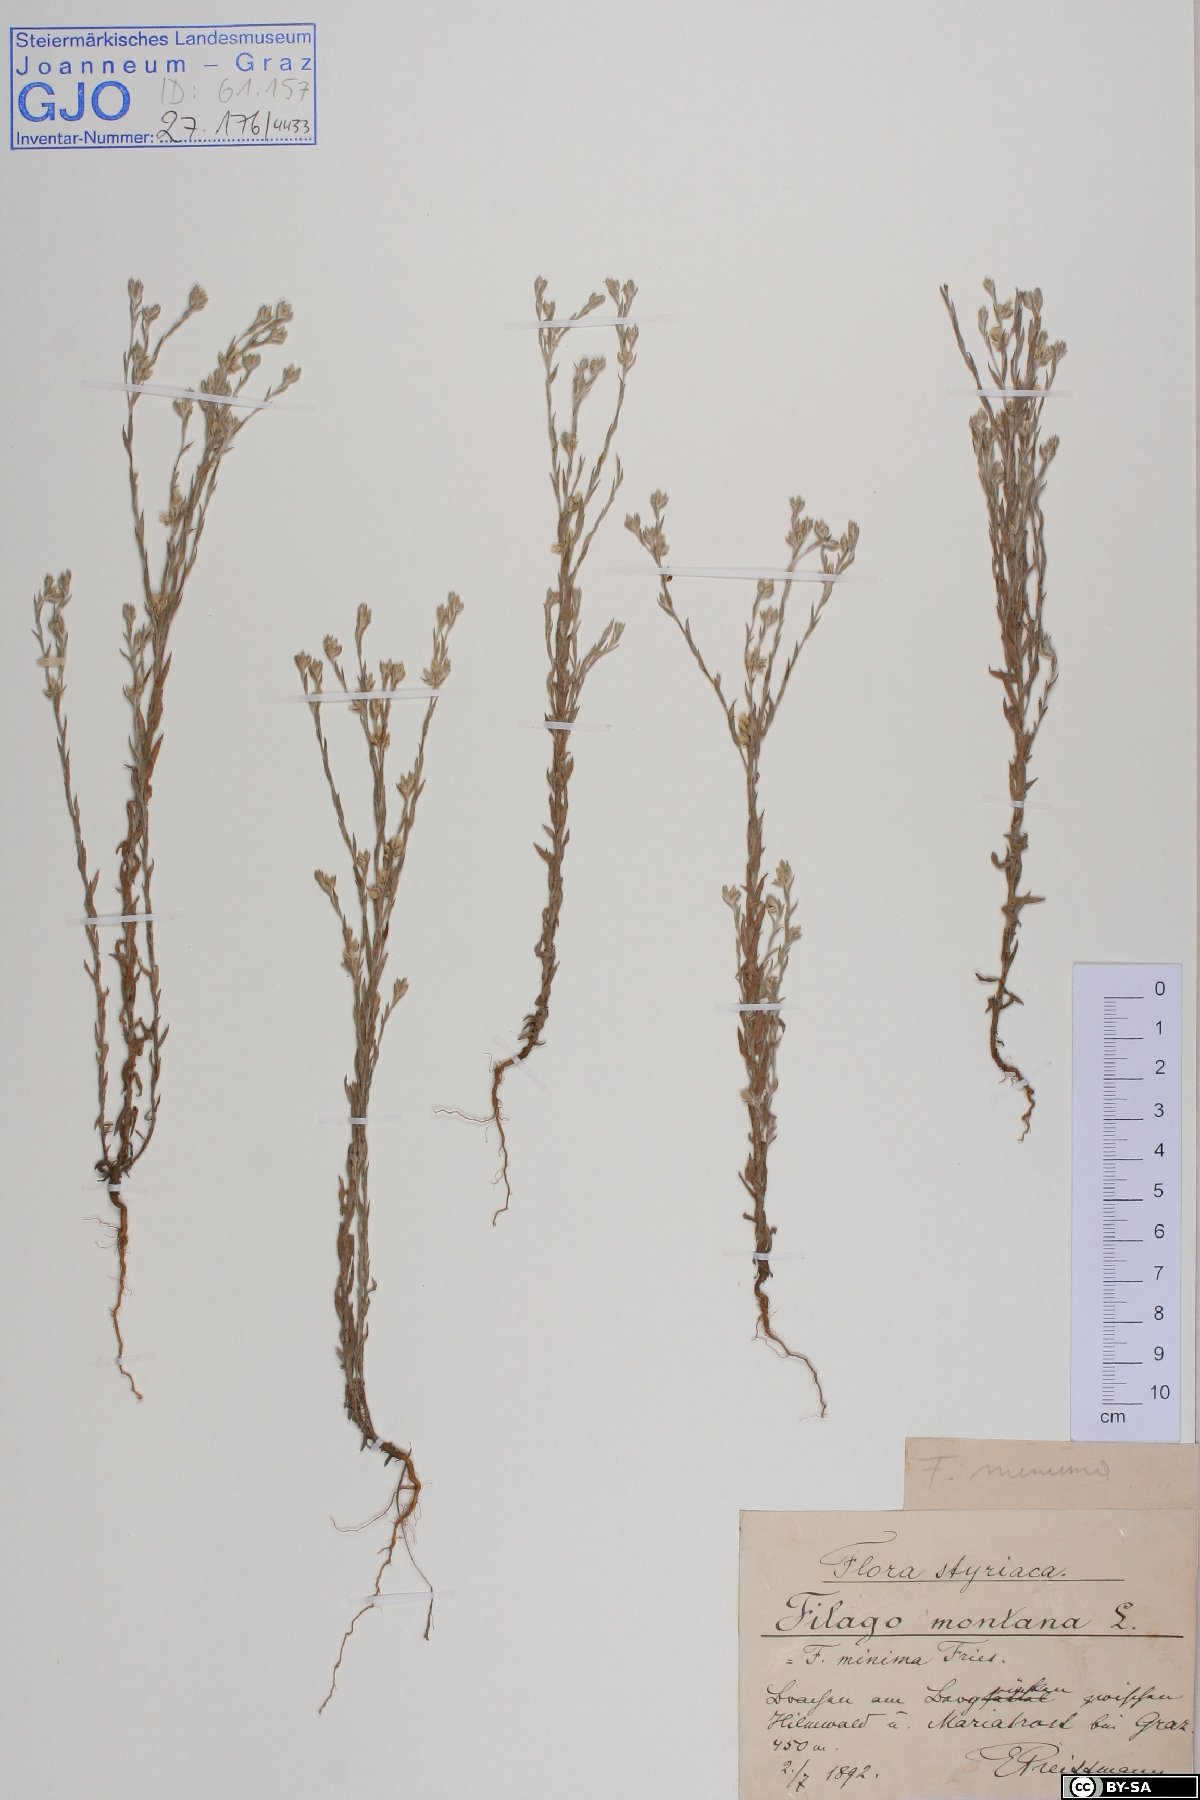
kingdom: Plantae
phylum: Tracheophyta
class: Magnoliopsida
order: Asterales
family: Asteraceae
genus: Logfia
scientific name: Logfia minima
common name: Little cottonrose
